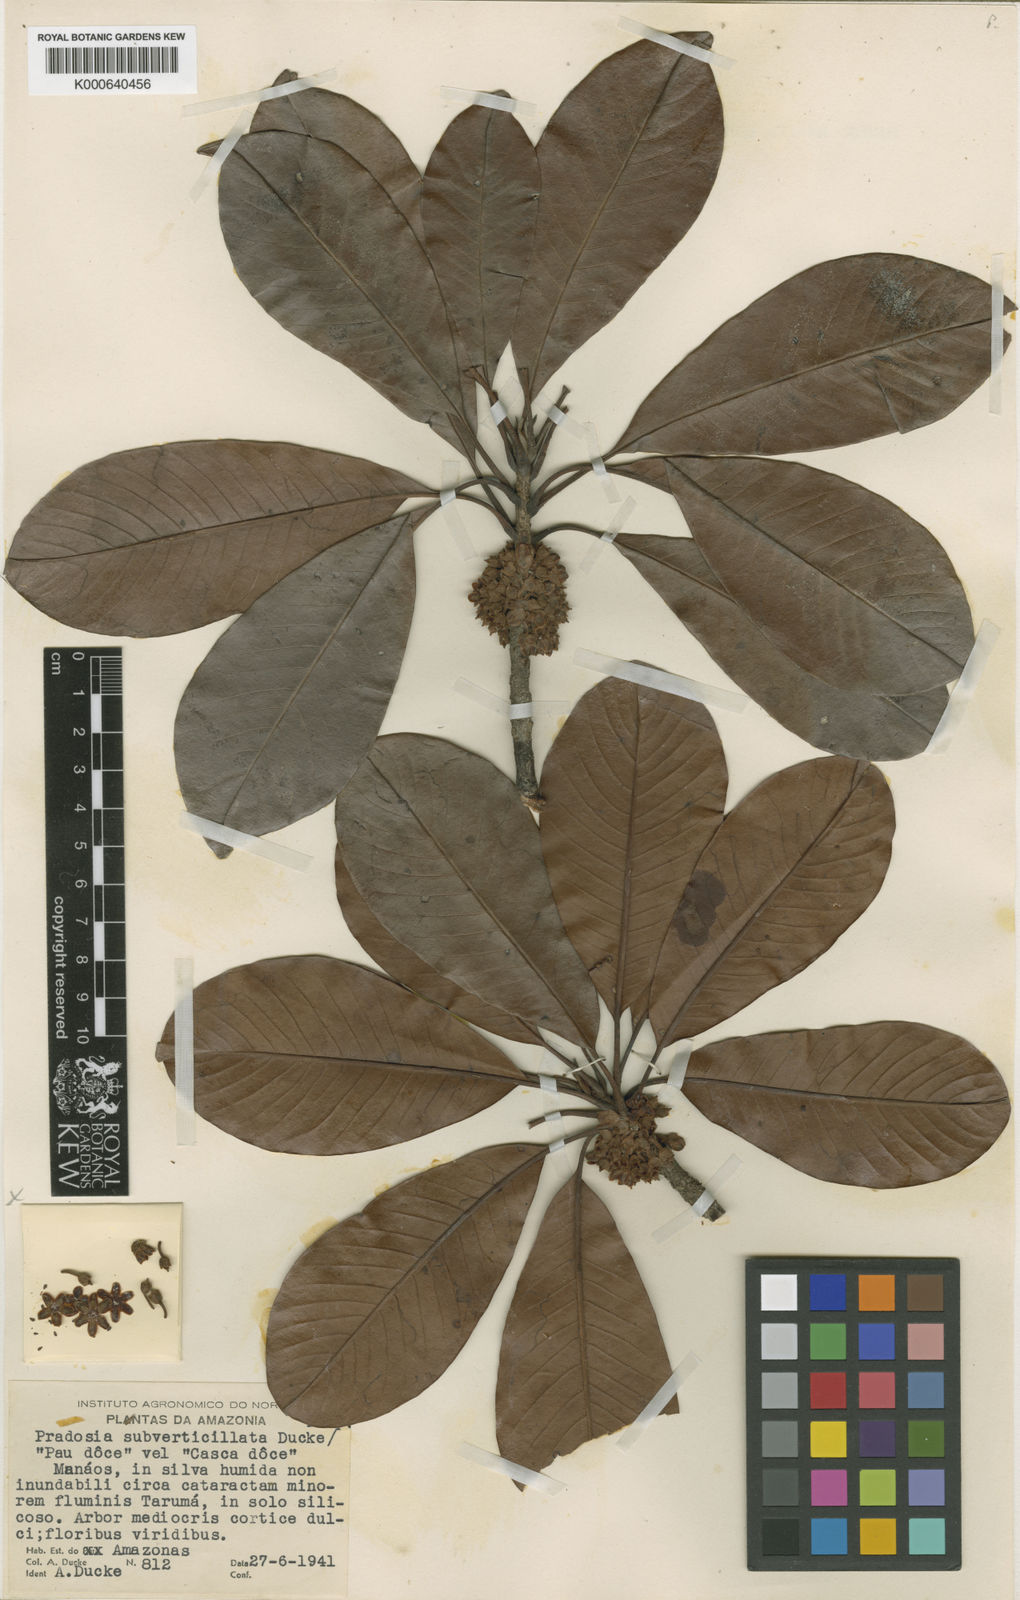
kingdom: Plantae
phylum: Tracheophyta
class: Magnoliopsida
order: Ericales
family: Sapotaceae
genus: Pradosia
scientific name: Pradosia subverticillata
